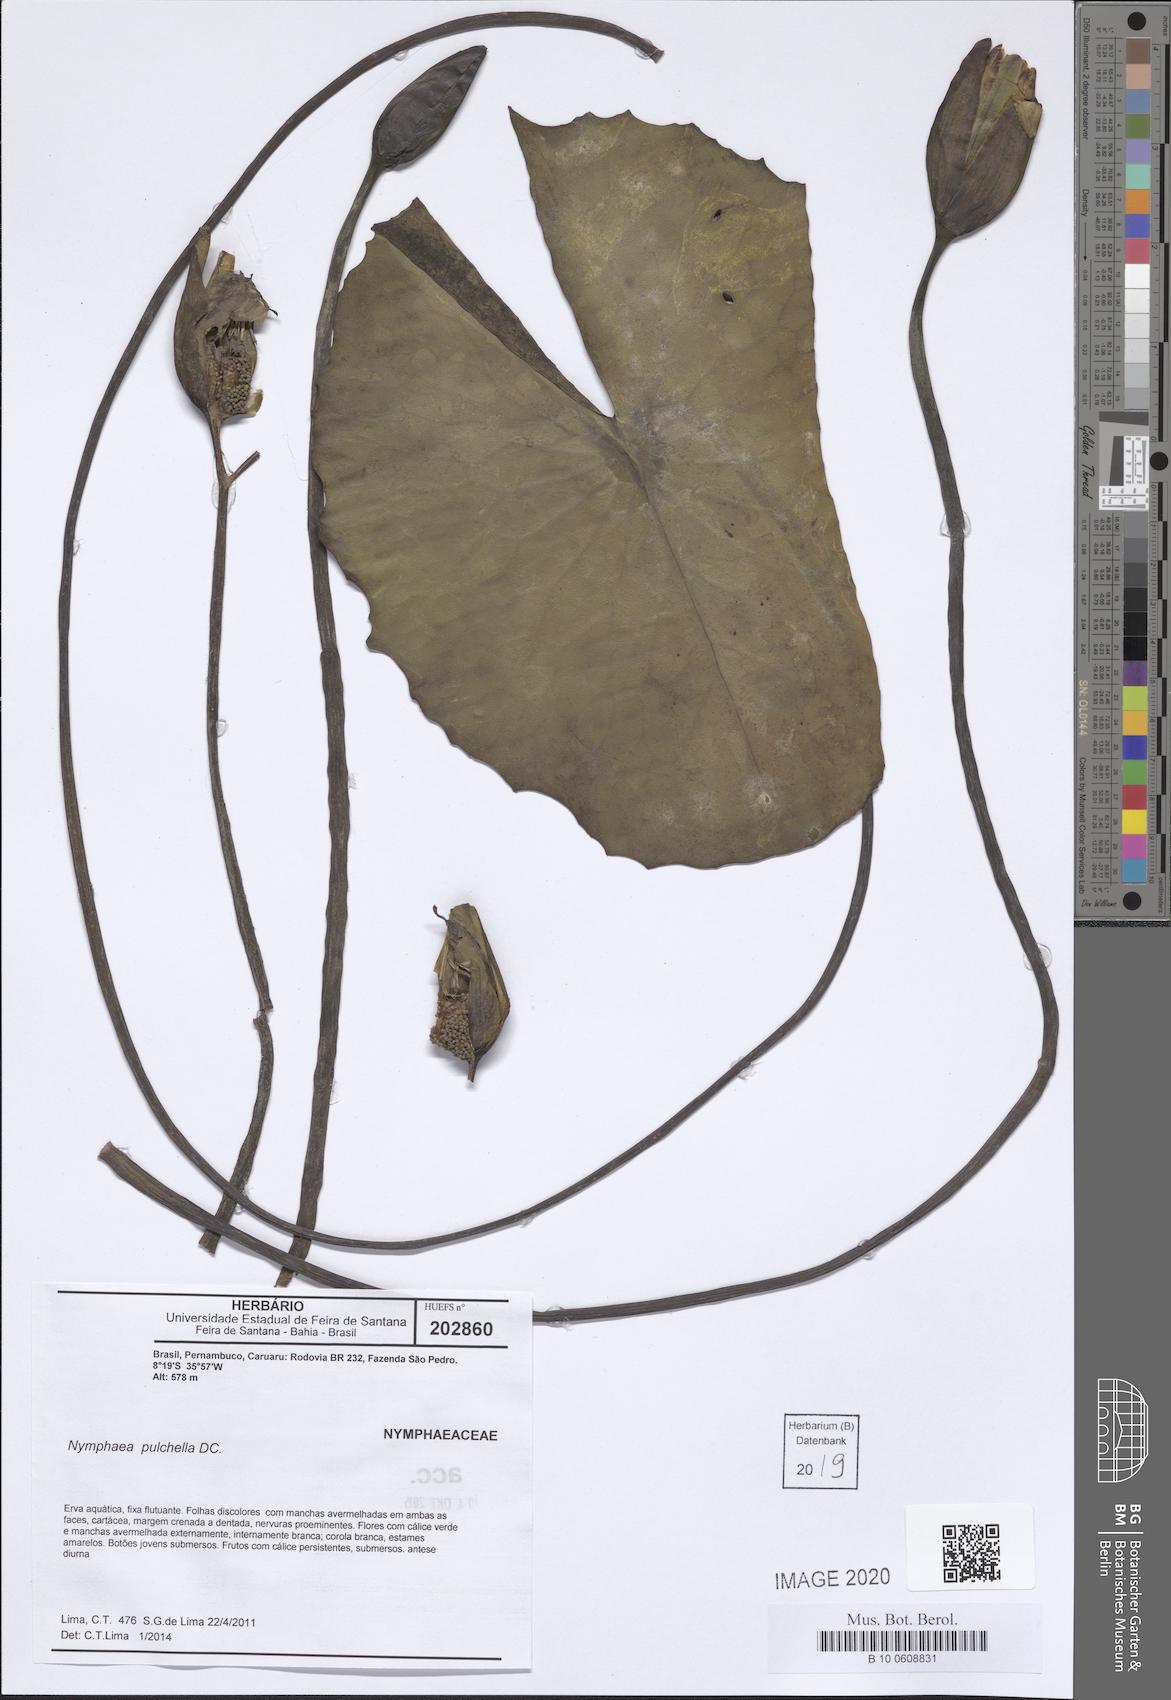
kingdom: Plantae
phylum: Tracheophyta
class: Magnoliopsida
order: Nymphaeales
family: Nymphaeaceae
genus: Nymphaea
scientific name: Nymphaea pulchella
